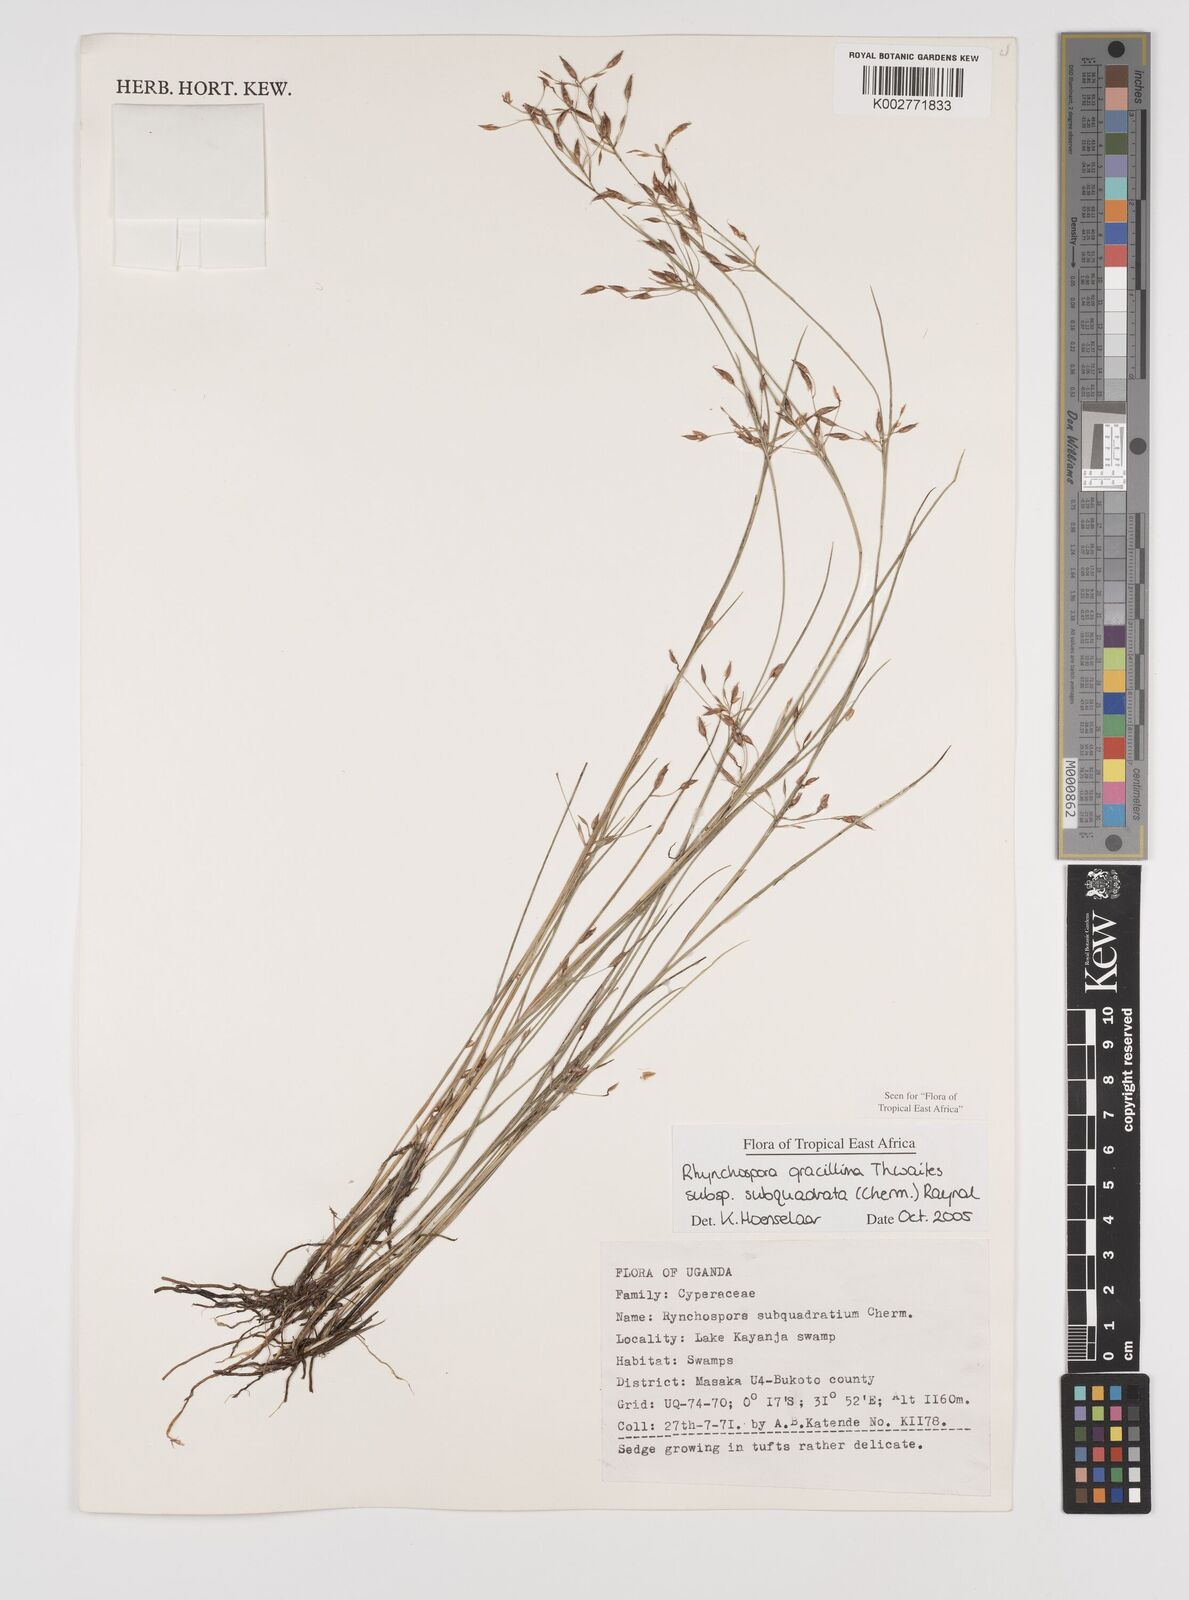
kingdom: Plantae
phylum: Tracheophyta
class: Liliopsida
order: Poales
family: Cyperaceae
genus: Rhynchospora
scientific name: Rhynchospora gracillima
